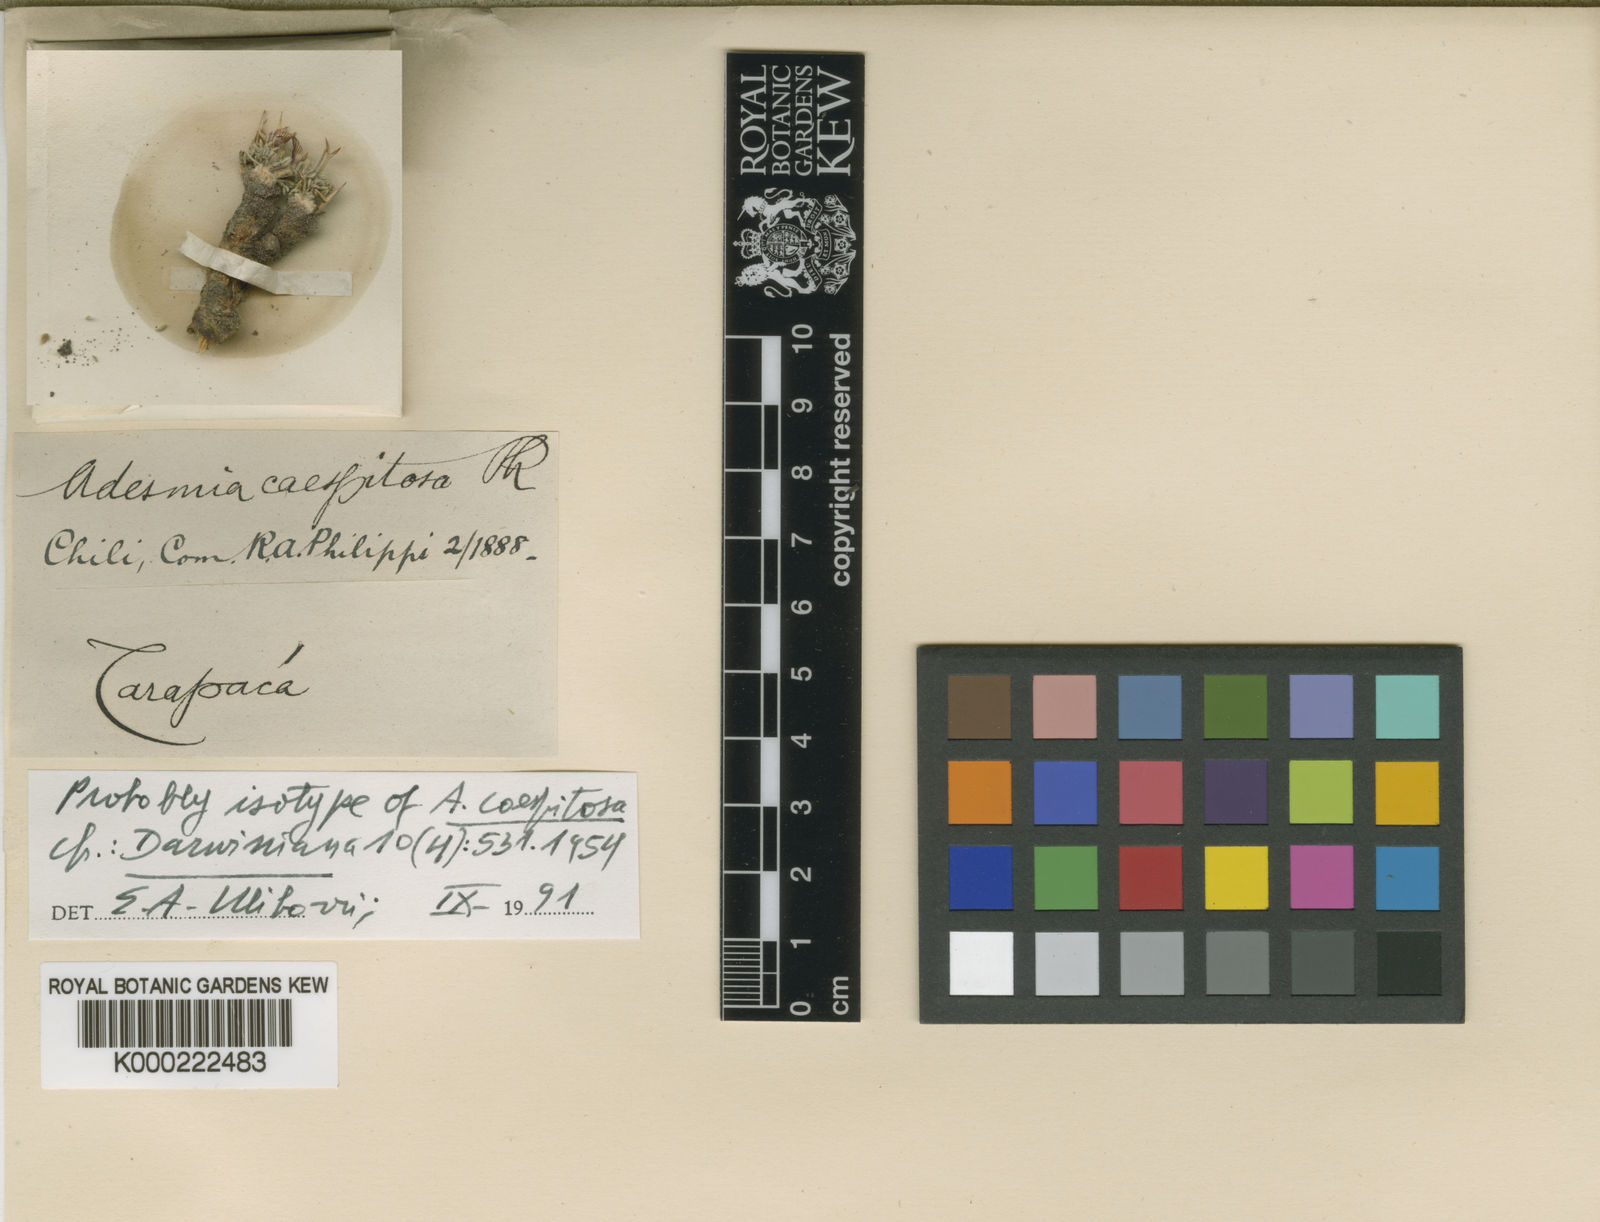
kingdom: Plantae
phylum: Tracheophyta
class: Magnoliopsida
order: Fabales
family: Fabaceae
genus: Adesmia
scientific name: Adesmia minor
